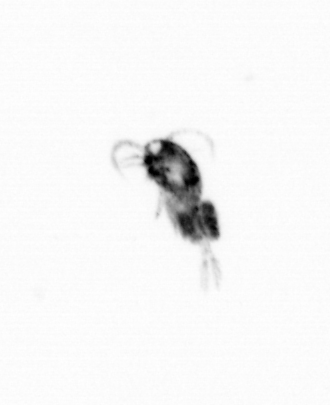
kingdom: Animalia
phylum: Arthropoda
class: Copepoda
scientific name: Copepoda
